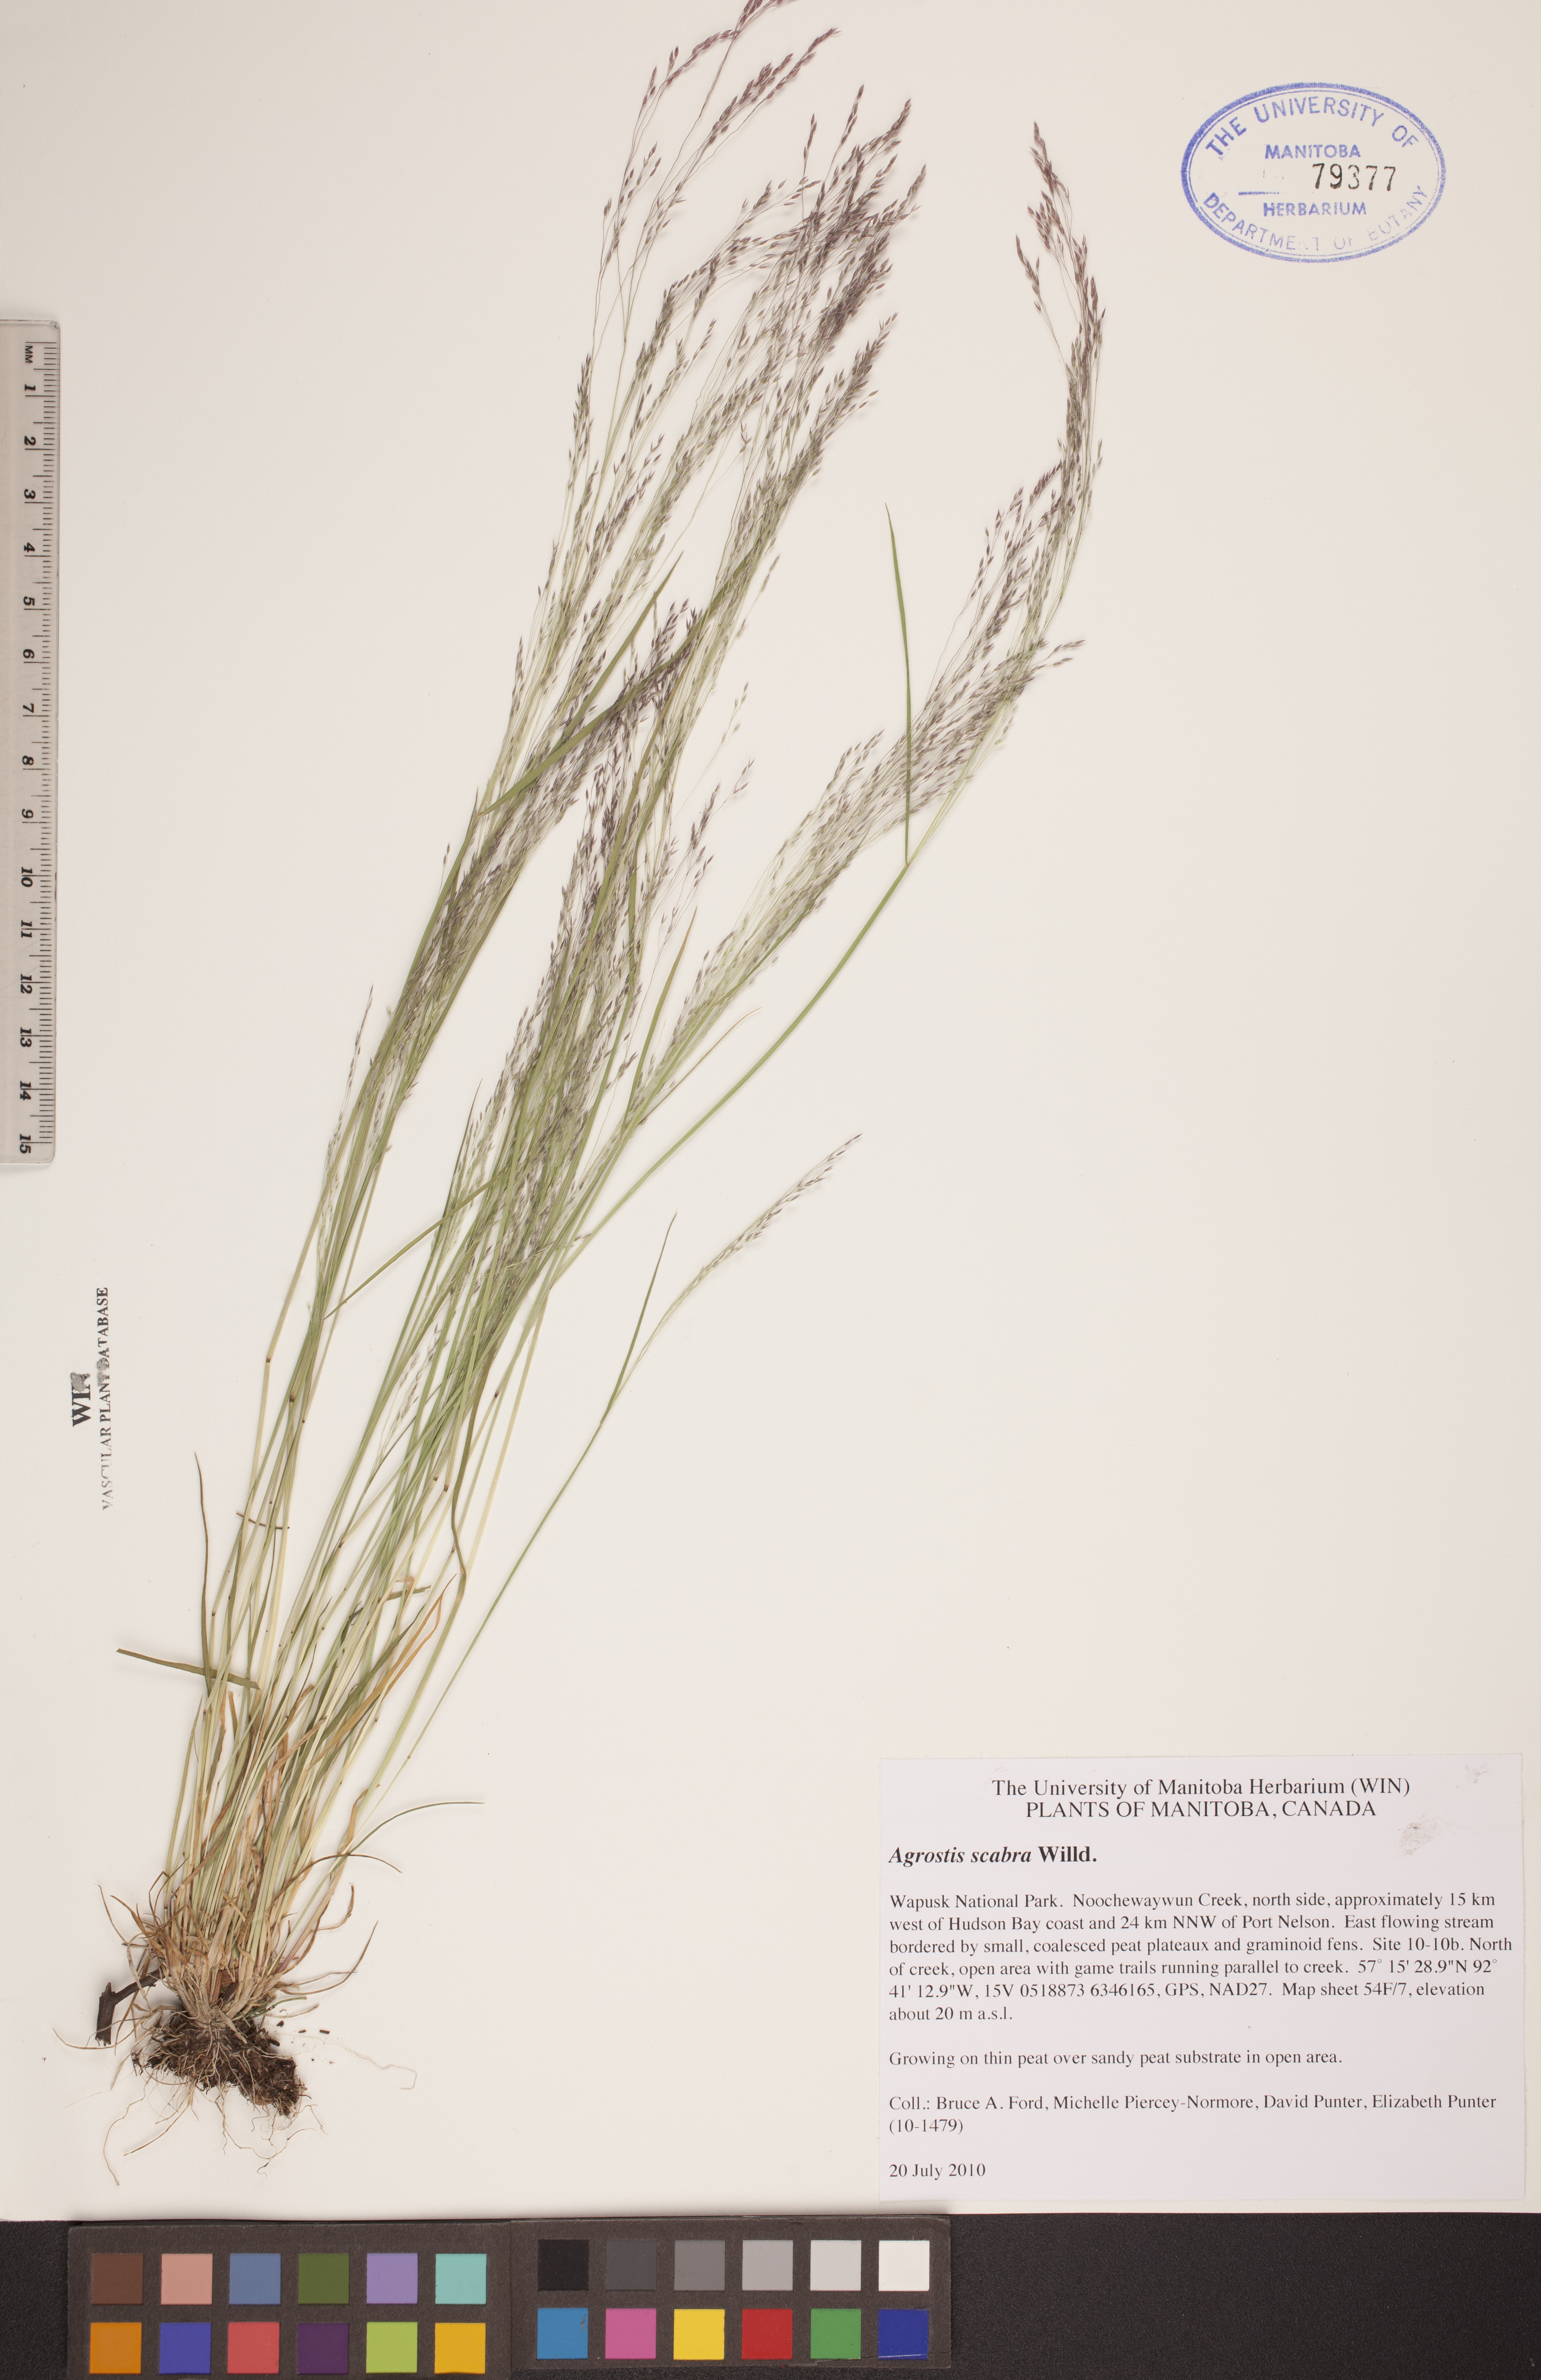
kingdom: Plantae
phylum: Tracheophyta
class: Liliopsida
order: Poales
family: Poaceae
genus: Agrostis
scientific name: Agrostis scabra
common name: Rough bent
